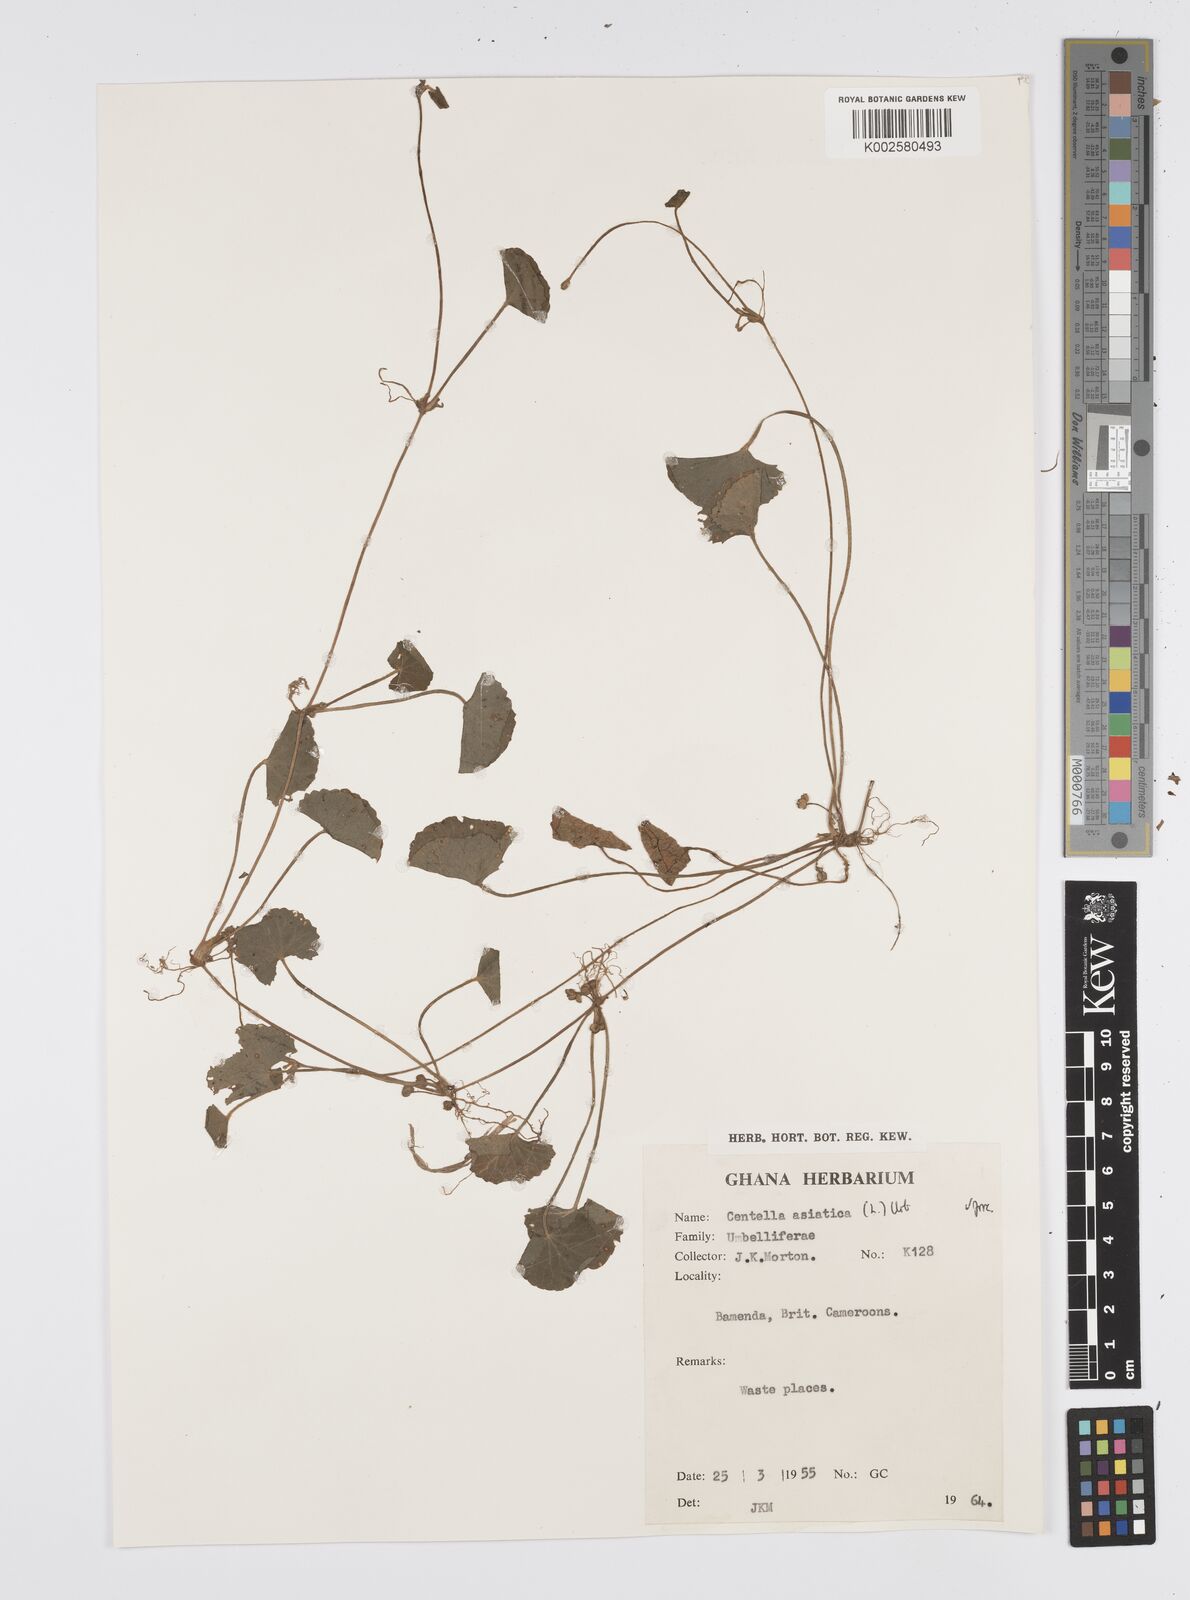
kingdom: Plantae
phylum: Tracheophyta
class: Magnoliopsida
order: Apiales
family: Apiaceae
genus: Centella
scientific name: Centella asiatica
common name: Spadeleaf
